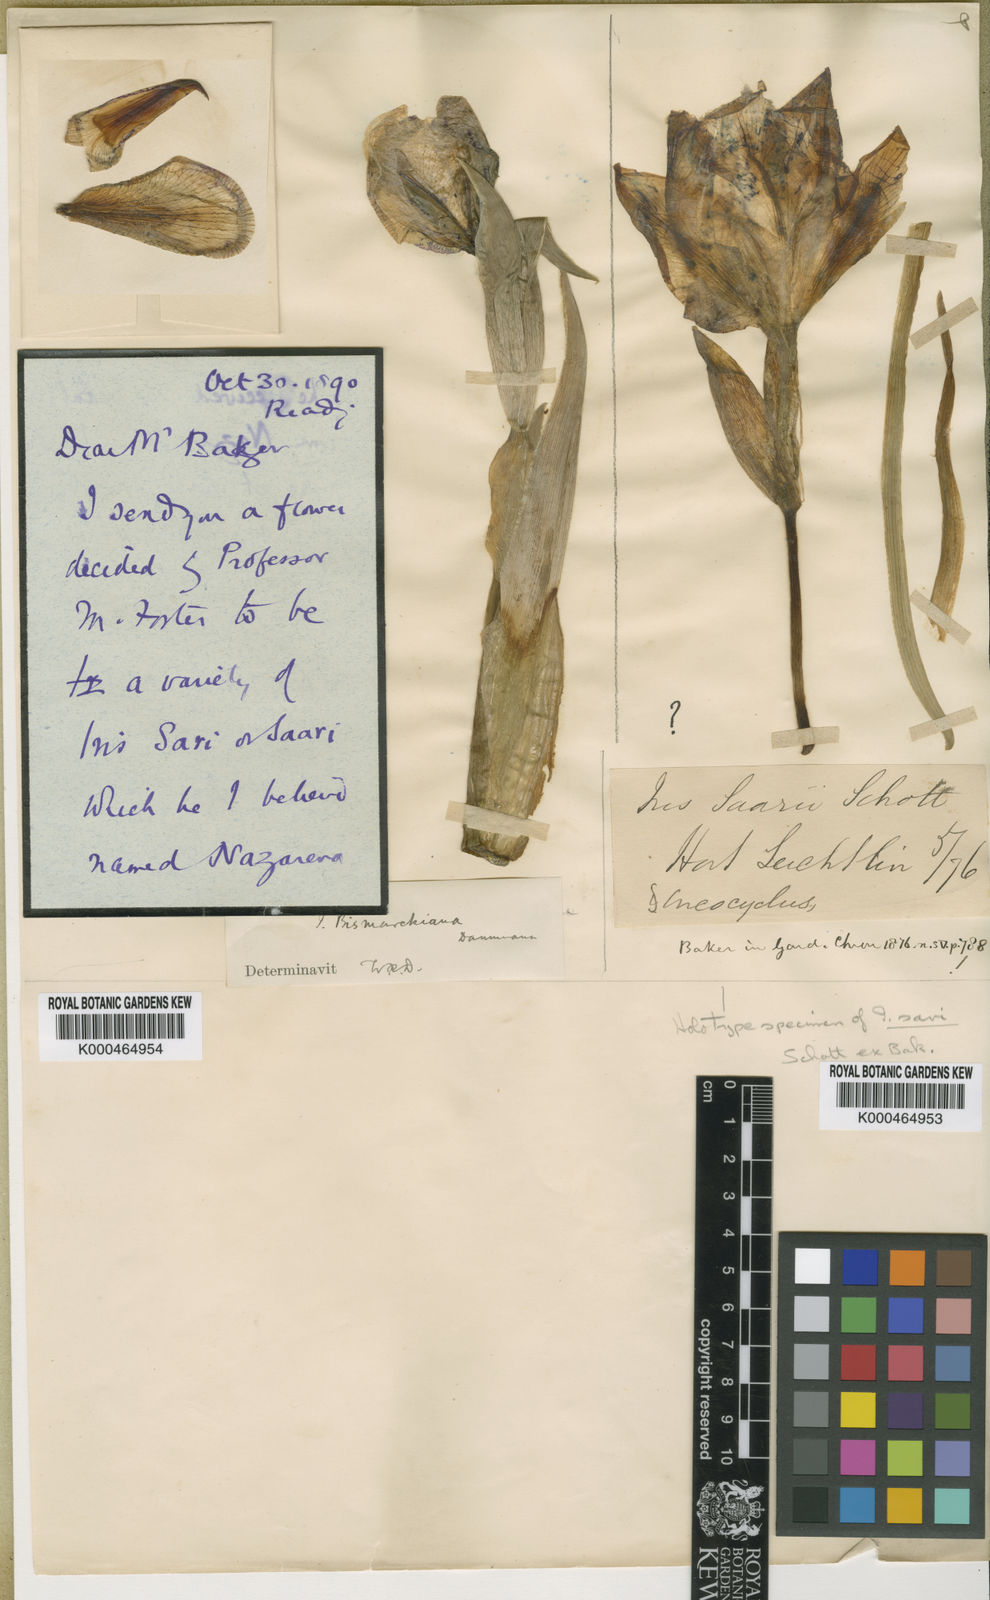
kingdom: Plantae
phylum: Tracheophyta
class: Liliopsida
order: Asparagales
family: Iridaceae
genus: Iris
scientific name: Iris sari
